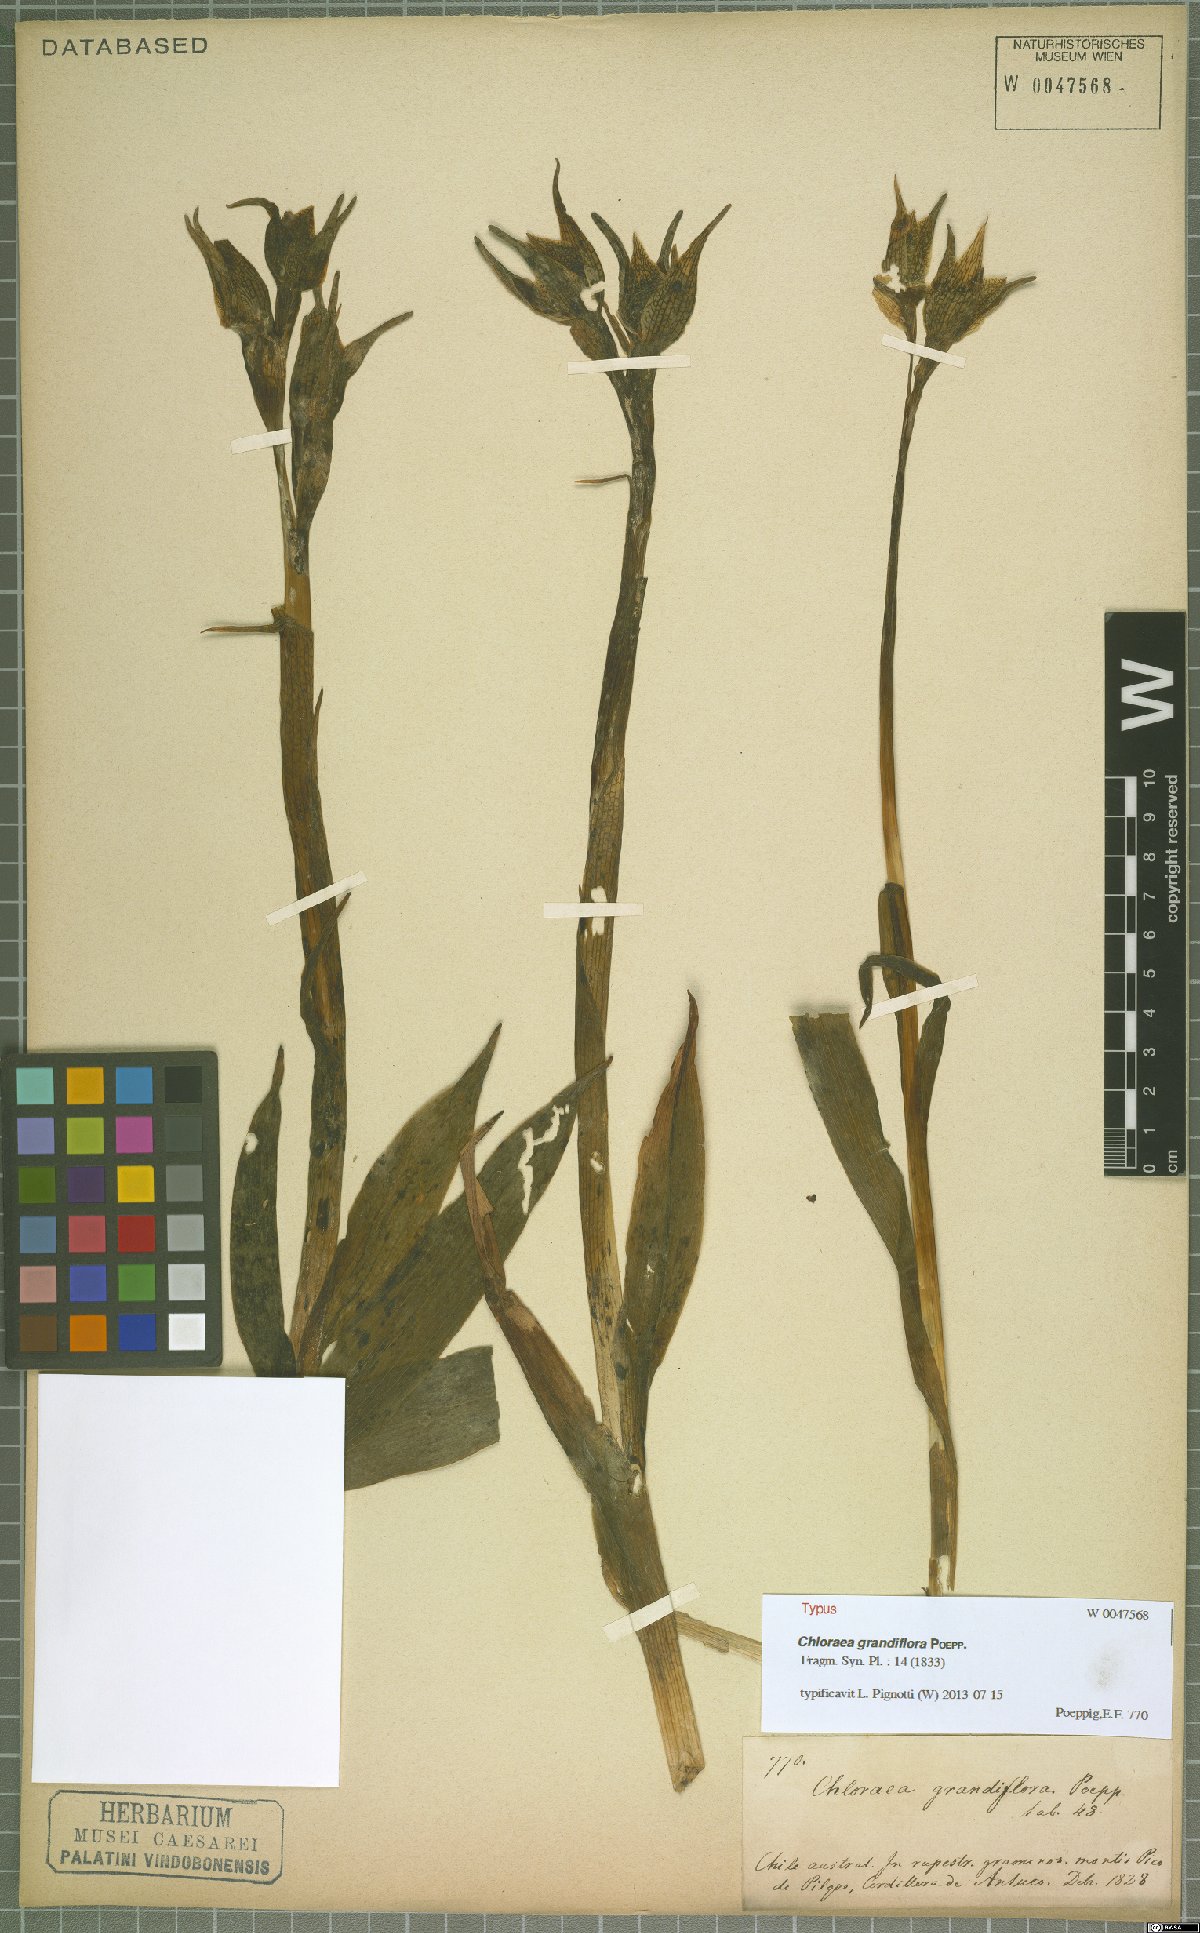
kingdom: Plantae
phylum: Tracheophyta
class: Liliopsida
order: Asparagales
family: Orchidaceae
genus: Chloraea
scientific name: Chloraea grandiflora
